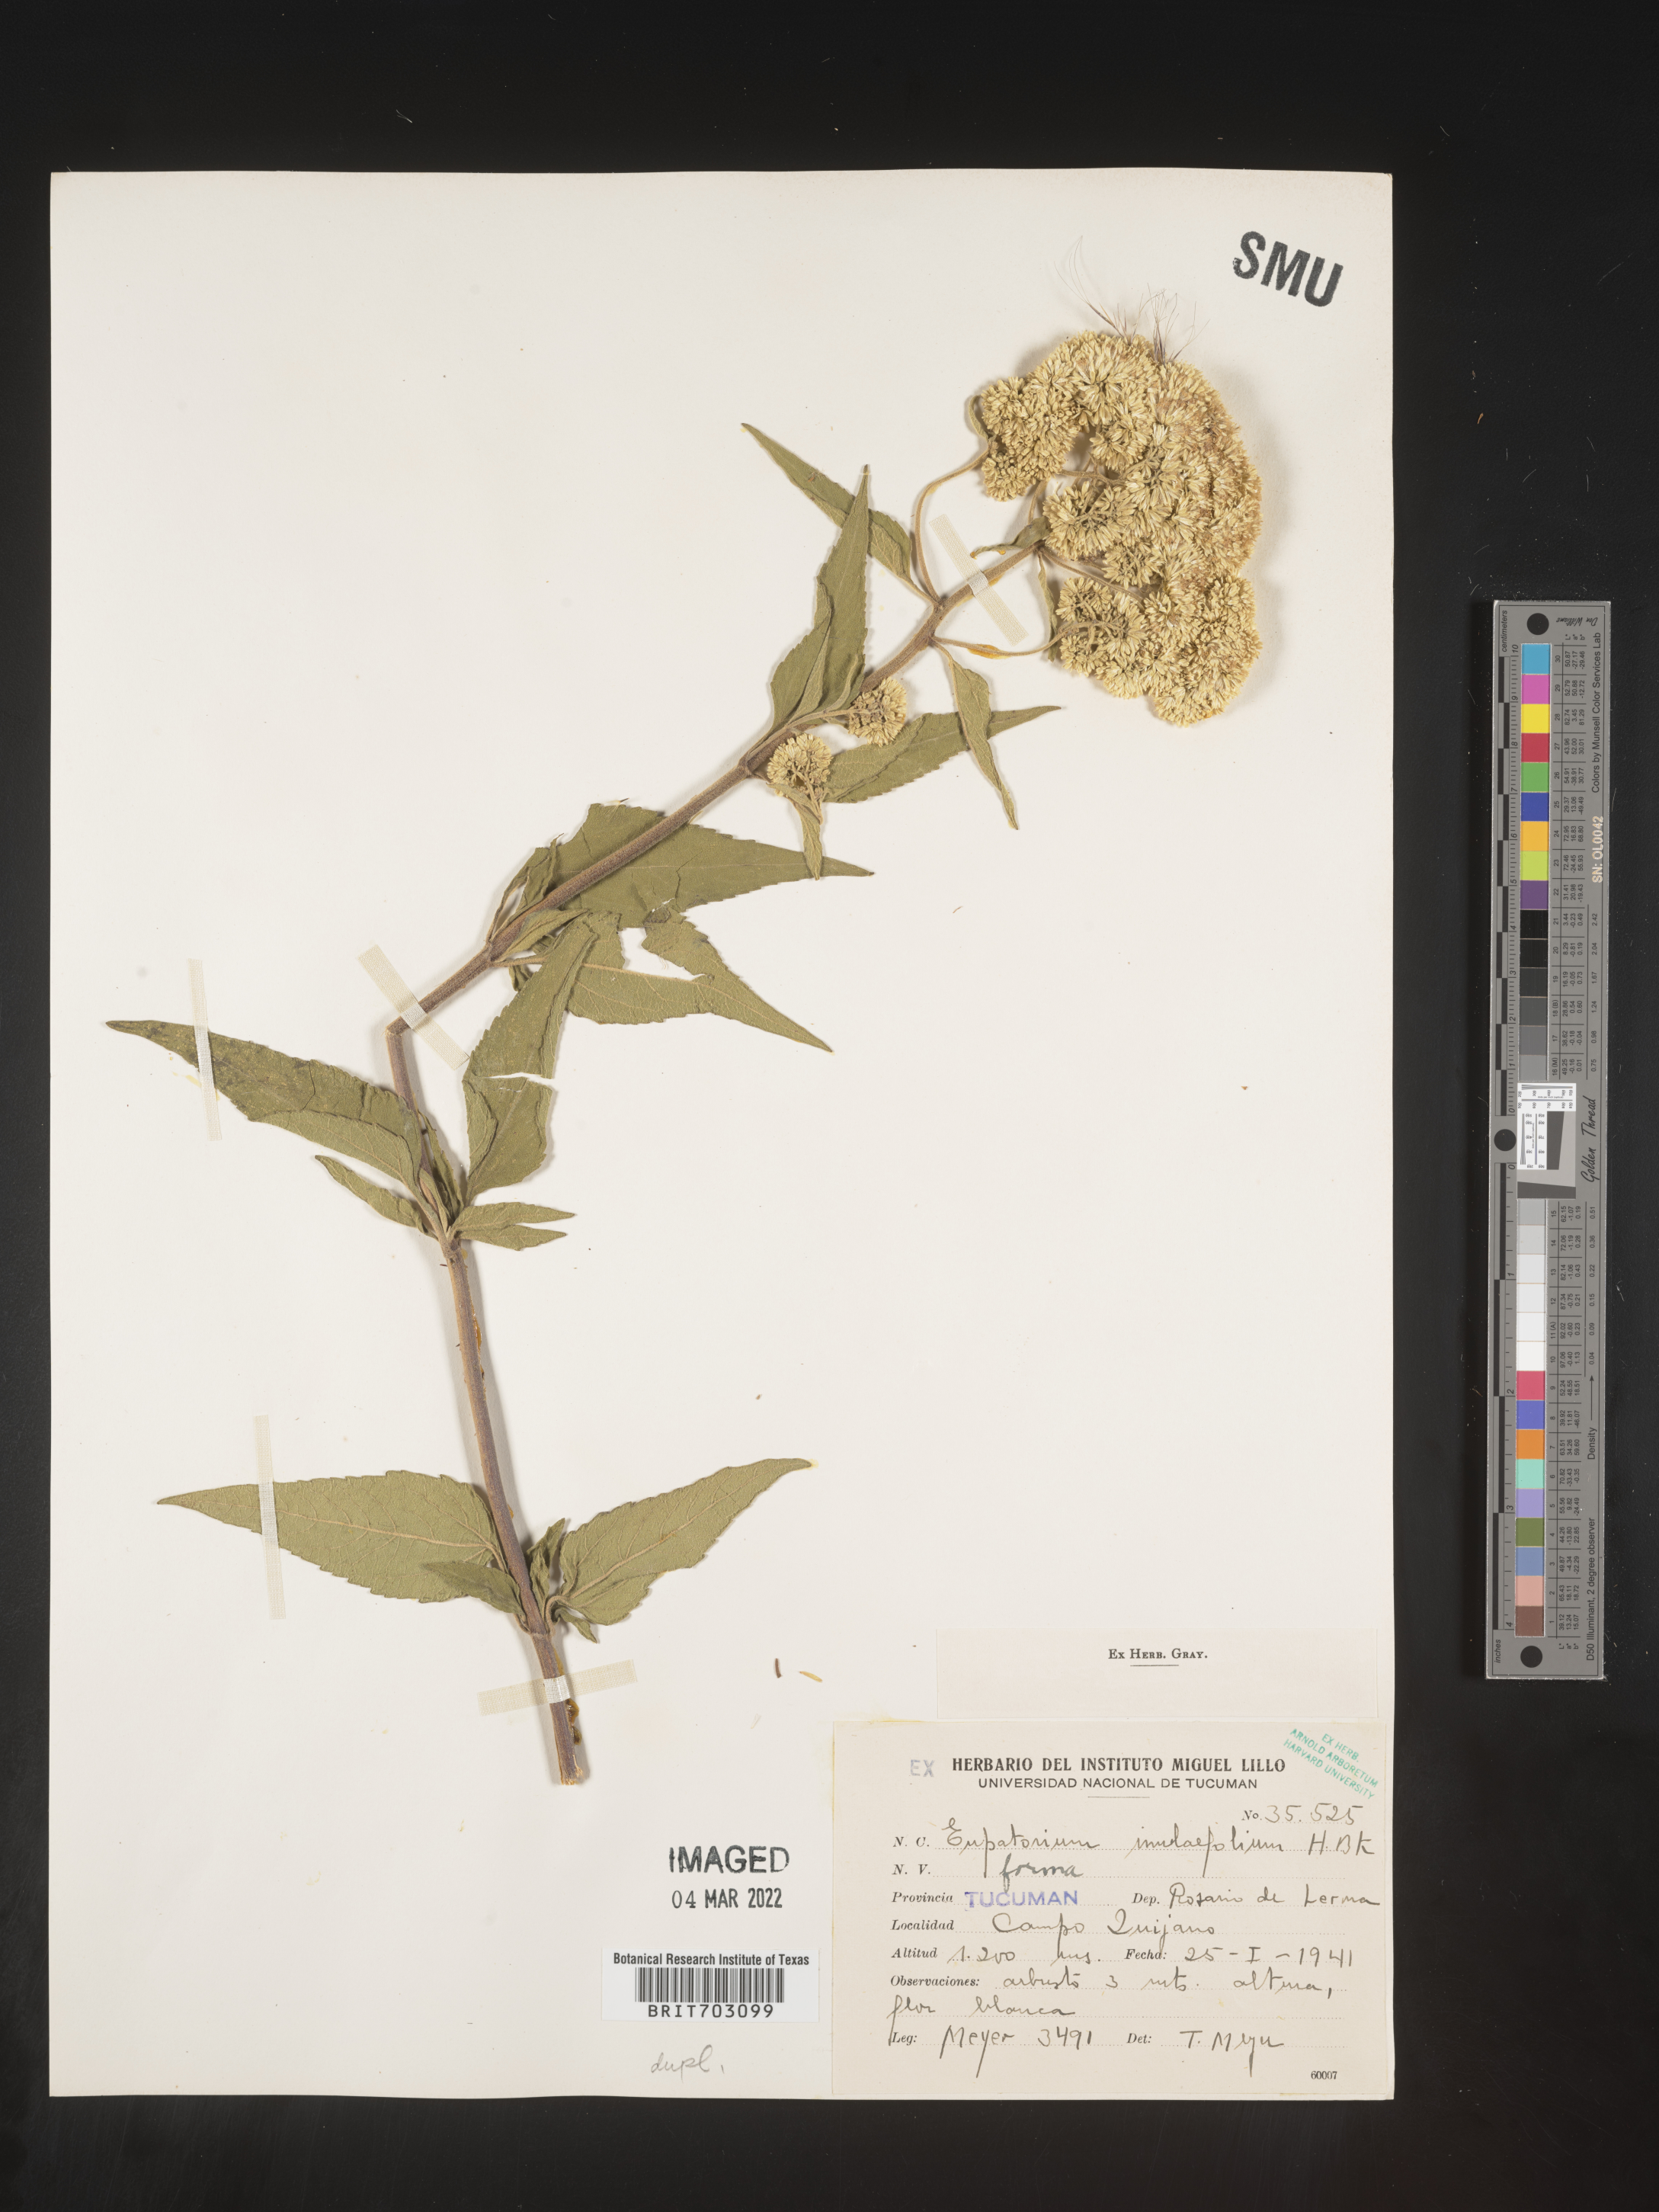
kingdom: Plantae
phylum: Tracheophyta
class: Magnoliopsida
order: Asterales
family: Asteraceae
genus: Eupatorium
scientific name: Eupatorium
